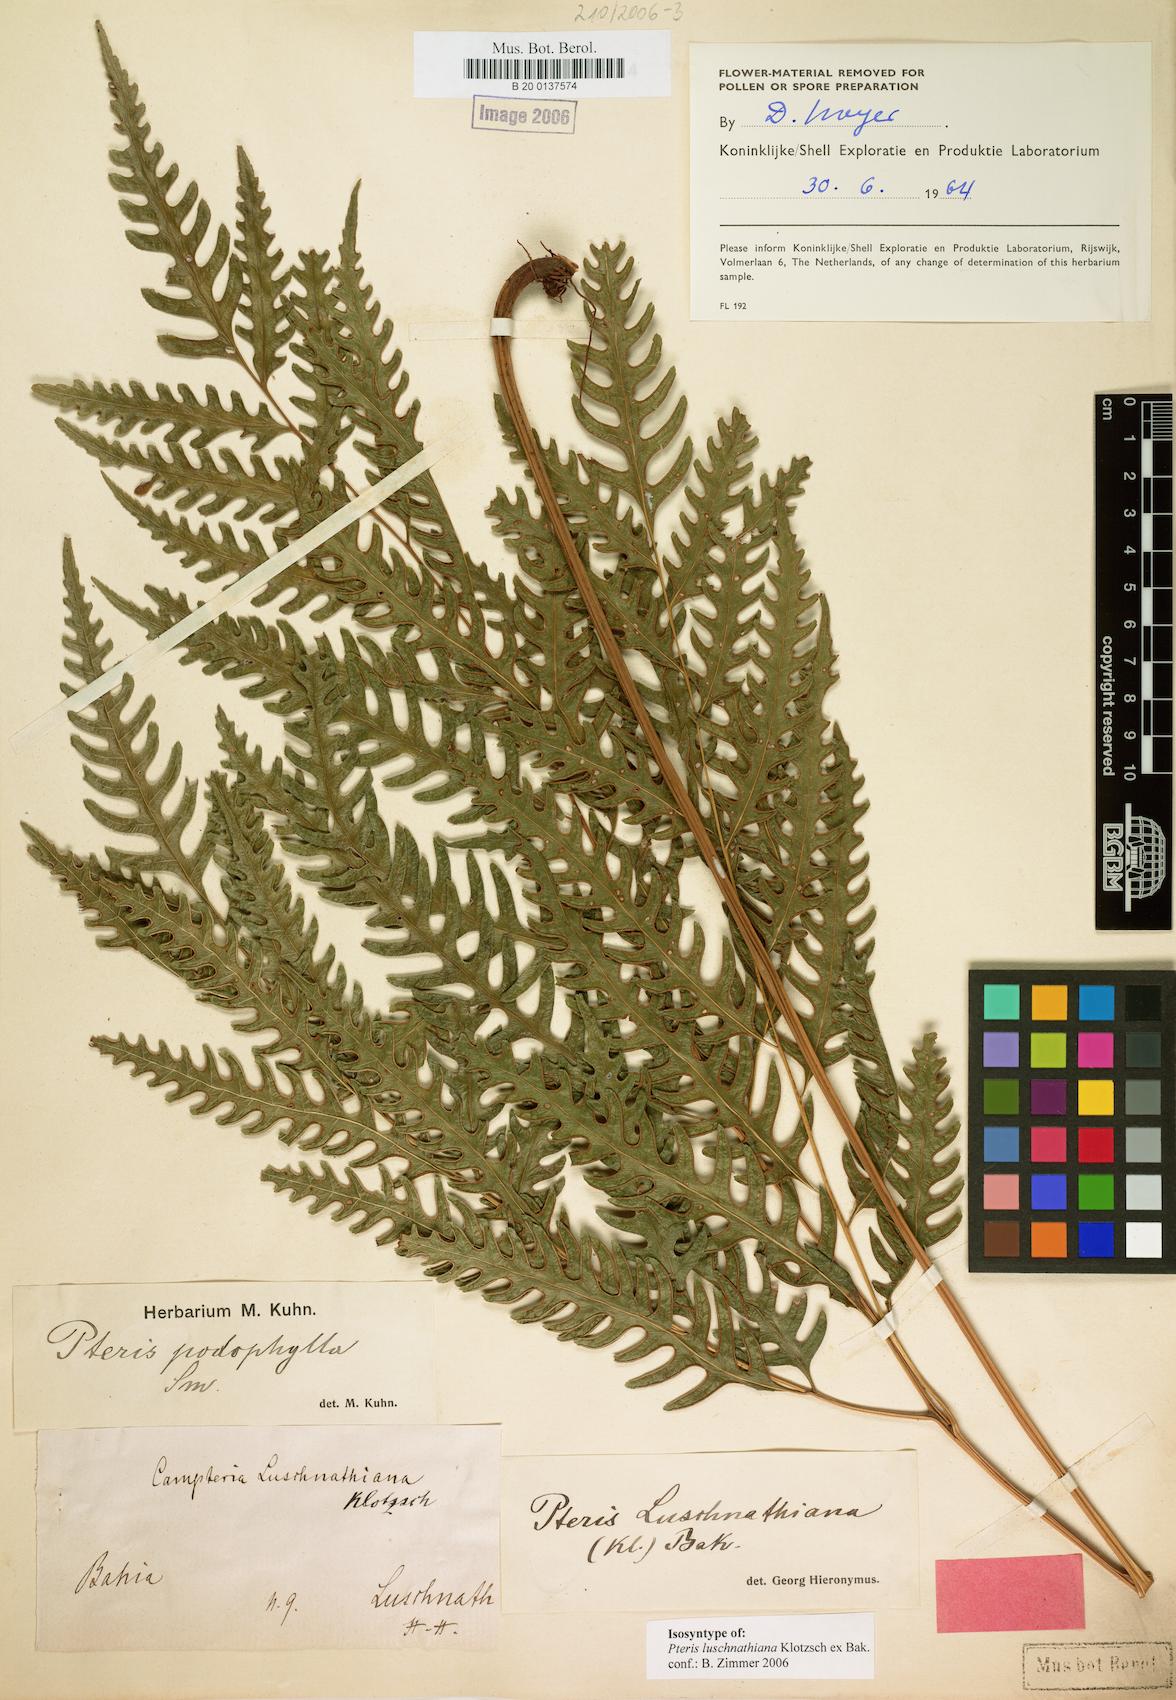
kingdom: Plantae
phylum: Tracheophyta
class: Polypodiopsida
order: Polypodiales
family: Pteridaceae
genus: Pteris
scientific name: Pteris propinqua
